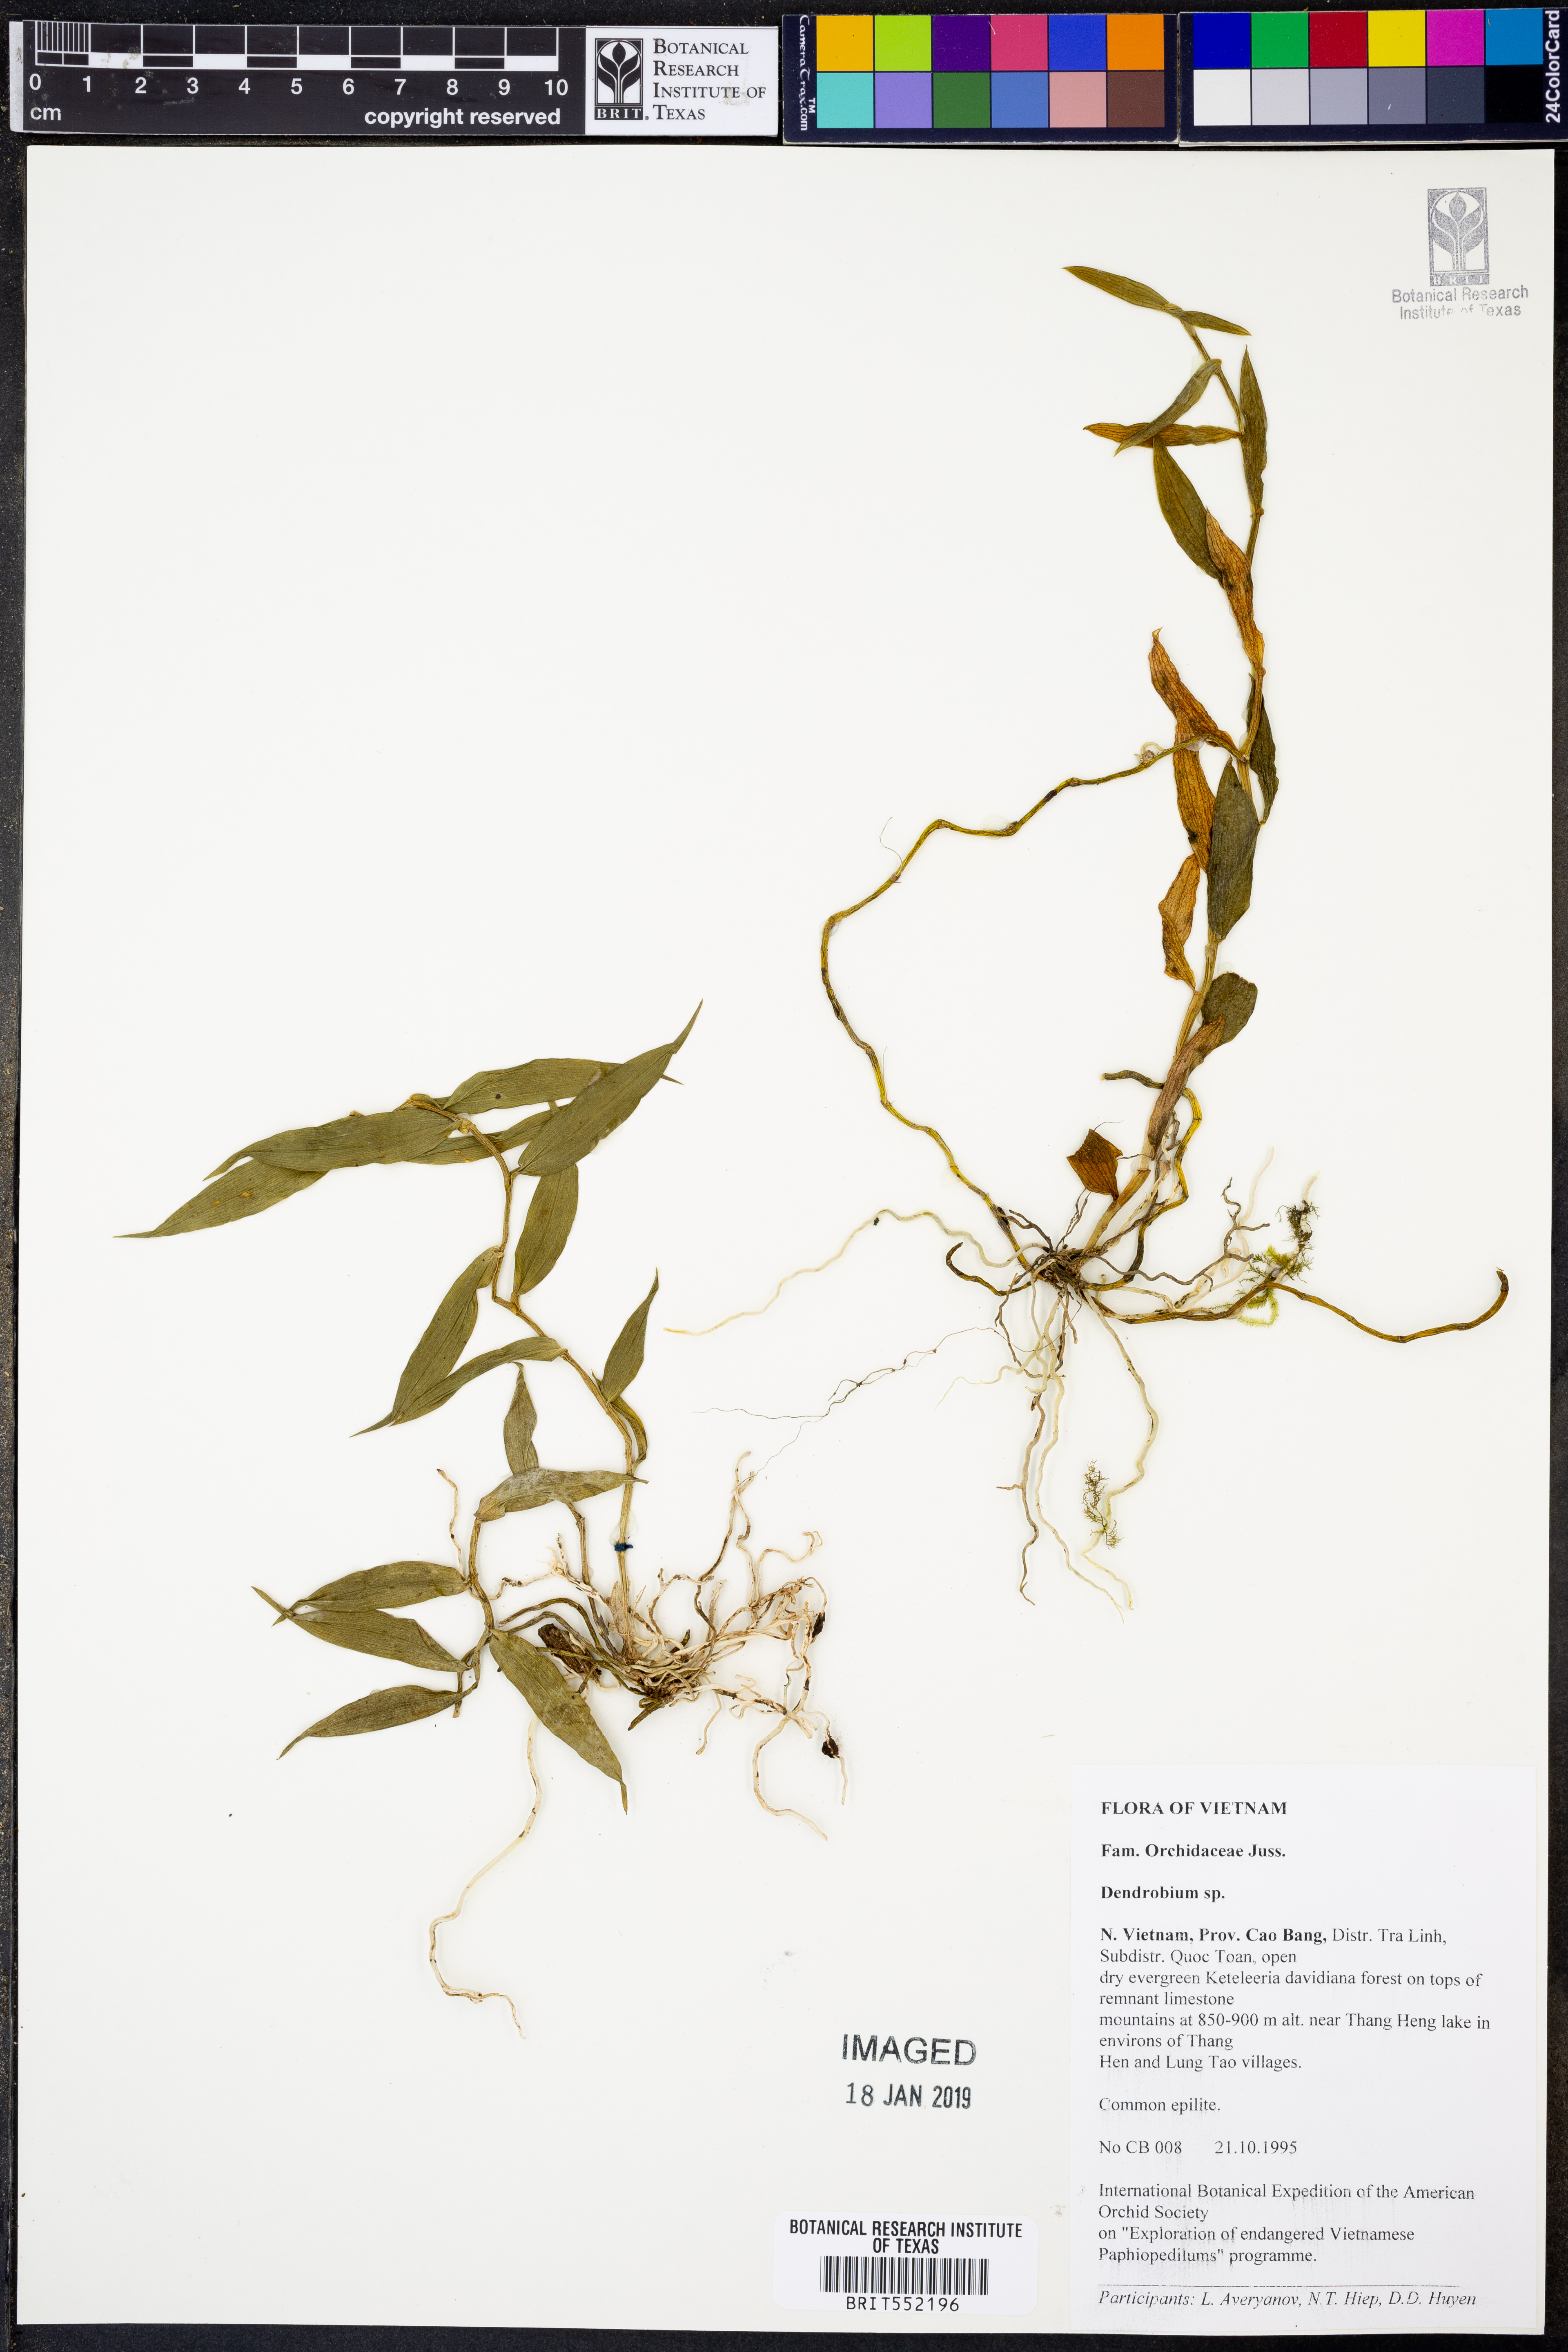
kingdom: Plantae
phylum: Tracheophyta
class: Liliopsida
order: Asparagales
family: Orchidaceae
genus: Dendrobium
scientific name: Dendrobium
